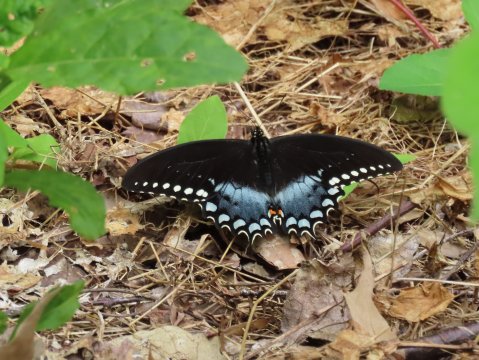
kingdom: Animalia
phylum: Arthropoda
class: Insecta
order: Lepidoptera
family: Papilionidae
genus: Pterourus
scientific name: Pterourus troilus
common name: Spicebush Swallowtail
